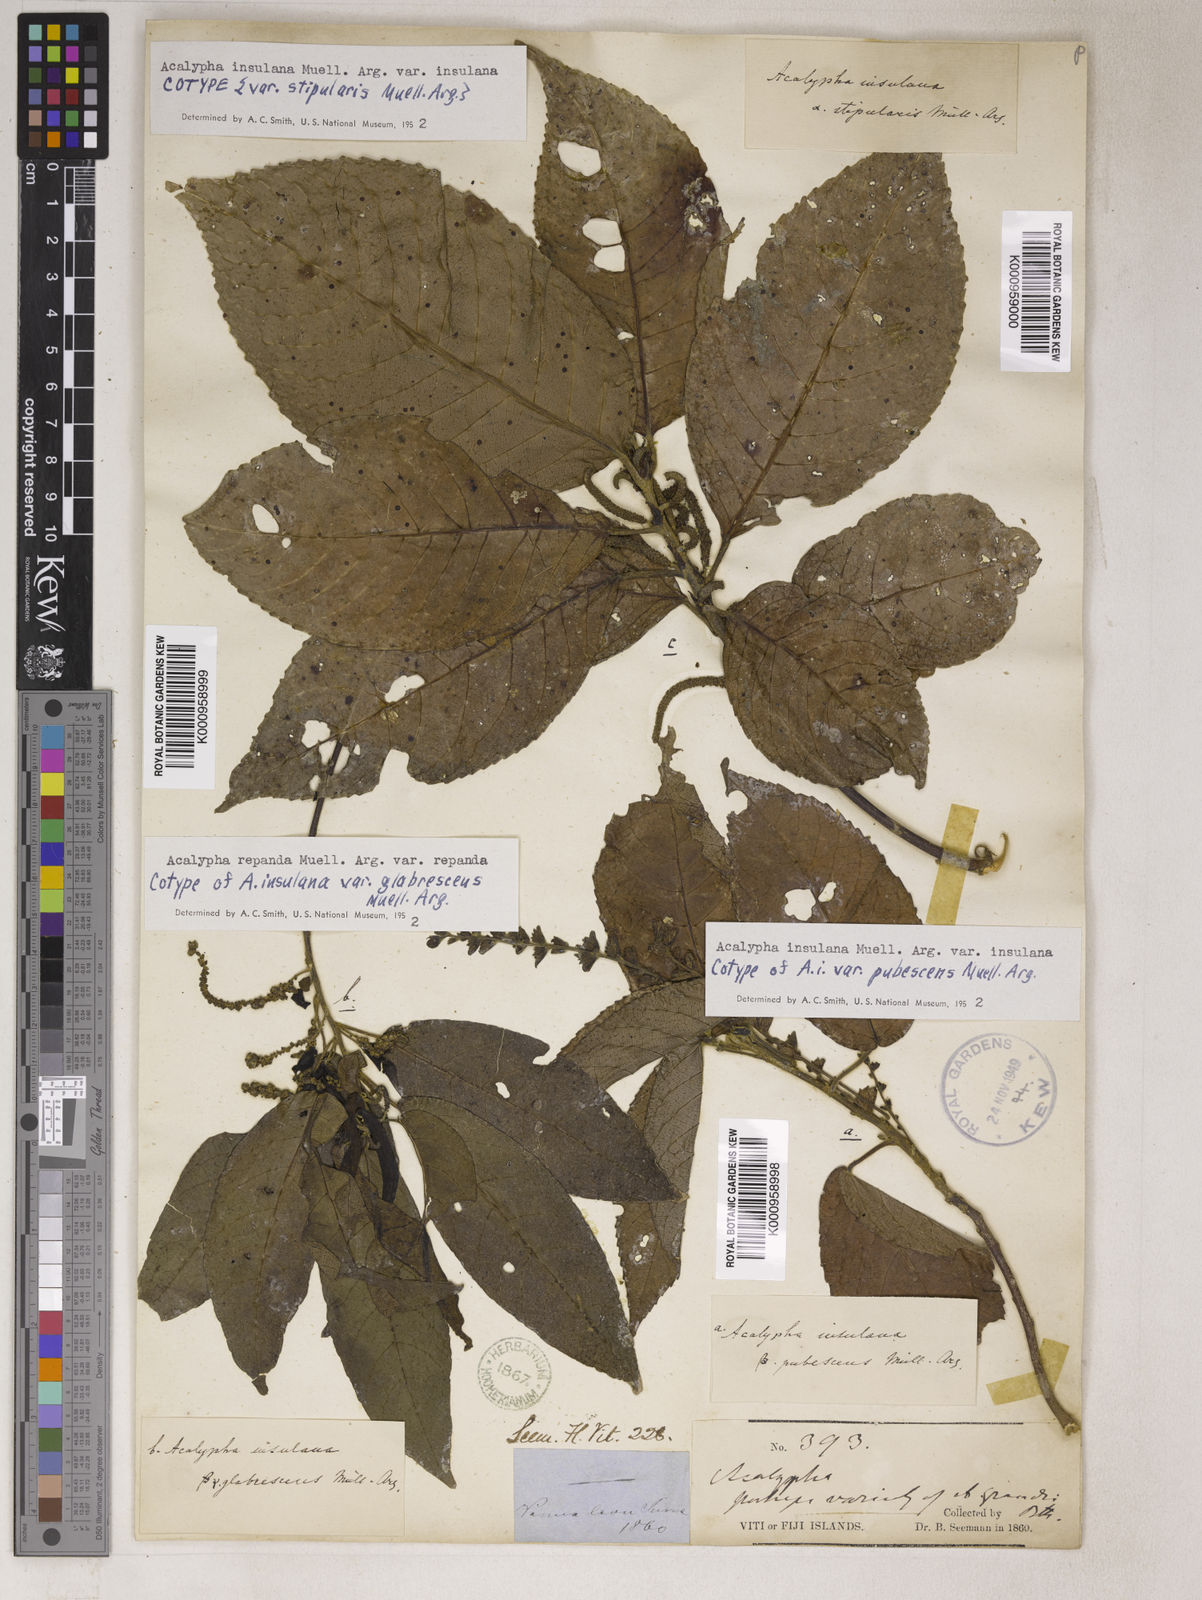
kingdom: Plantae
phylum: Tracheophyta
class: Magnoliopsida
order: Malpighiales
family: Euphorbiaceae
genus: Acalypha
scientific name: Acalypha
